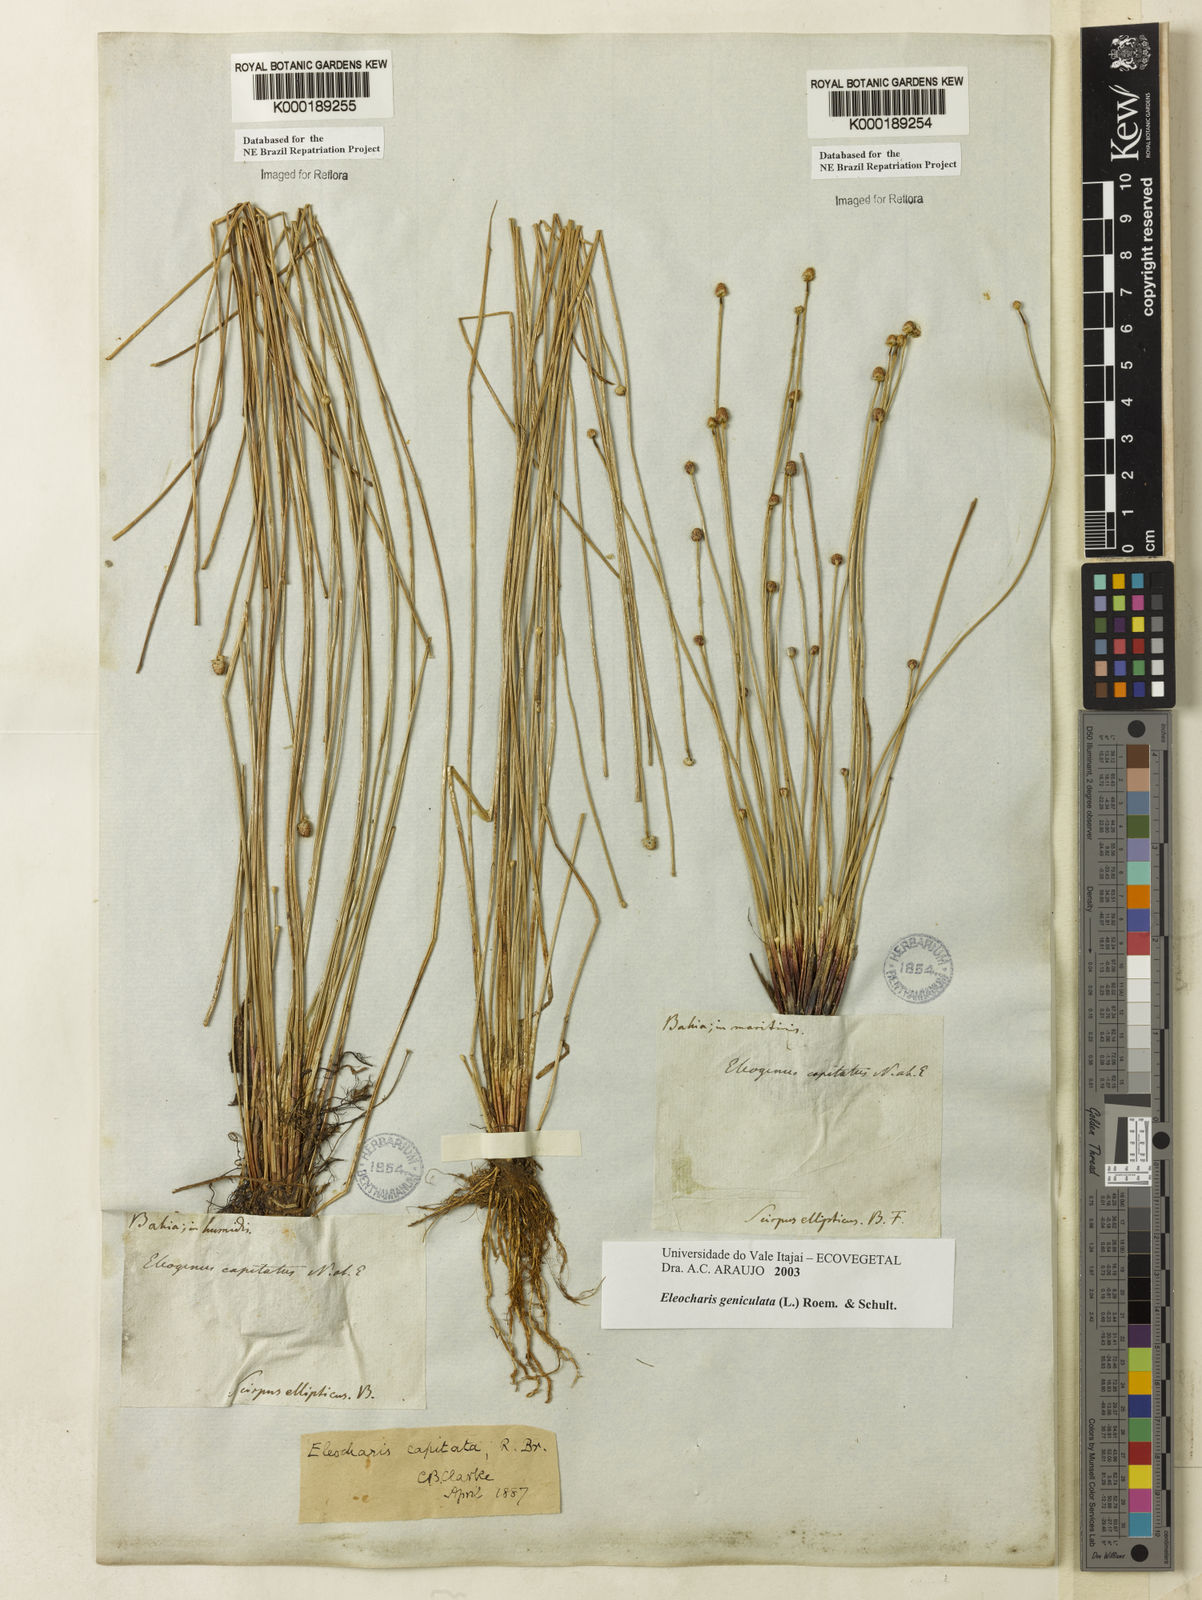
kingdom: Plantae
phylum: Tracheophyta
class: Liliopsida
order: Poales
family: Cyperaceae
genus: Eleocharis
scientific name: Eleocharis geniculata
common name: Canada spikesedge
